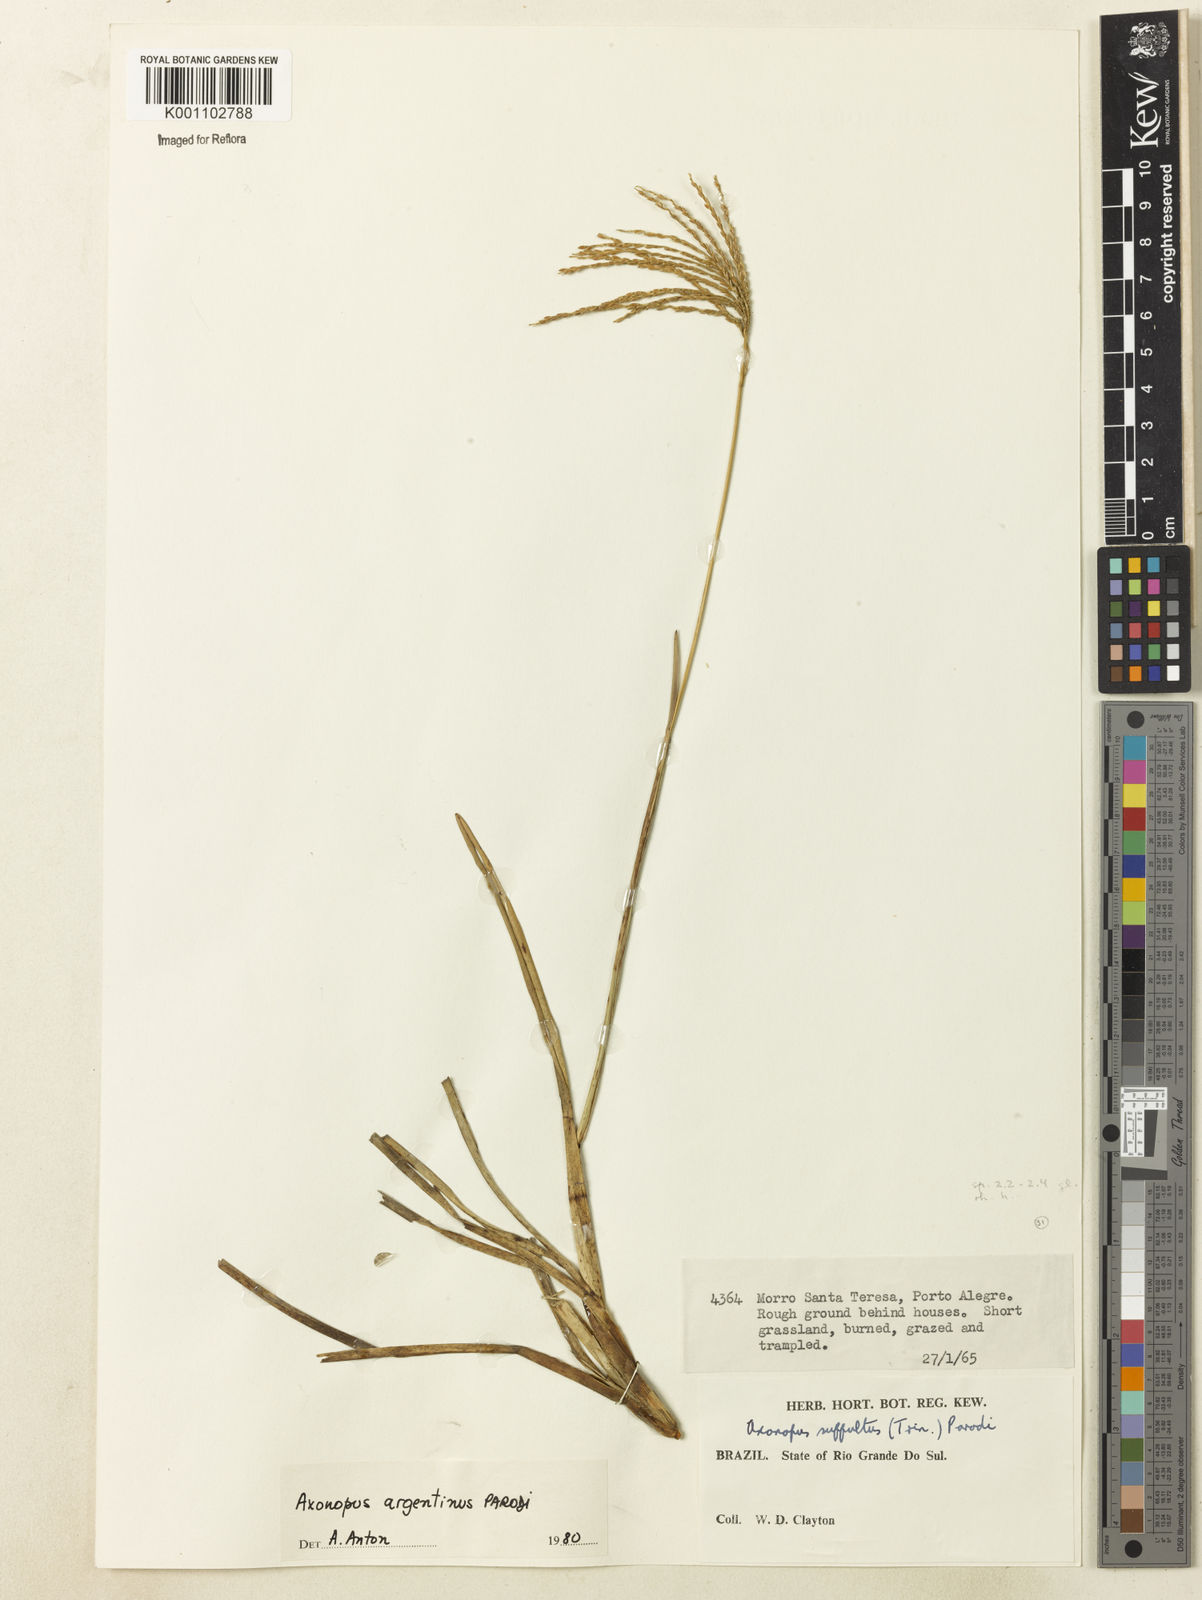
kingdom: Plantae
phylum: Tracheophyta
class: Liliopsida
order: Poales
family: Poaceae
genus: Axonopus
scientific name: Axonopus argentinus
